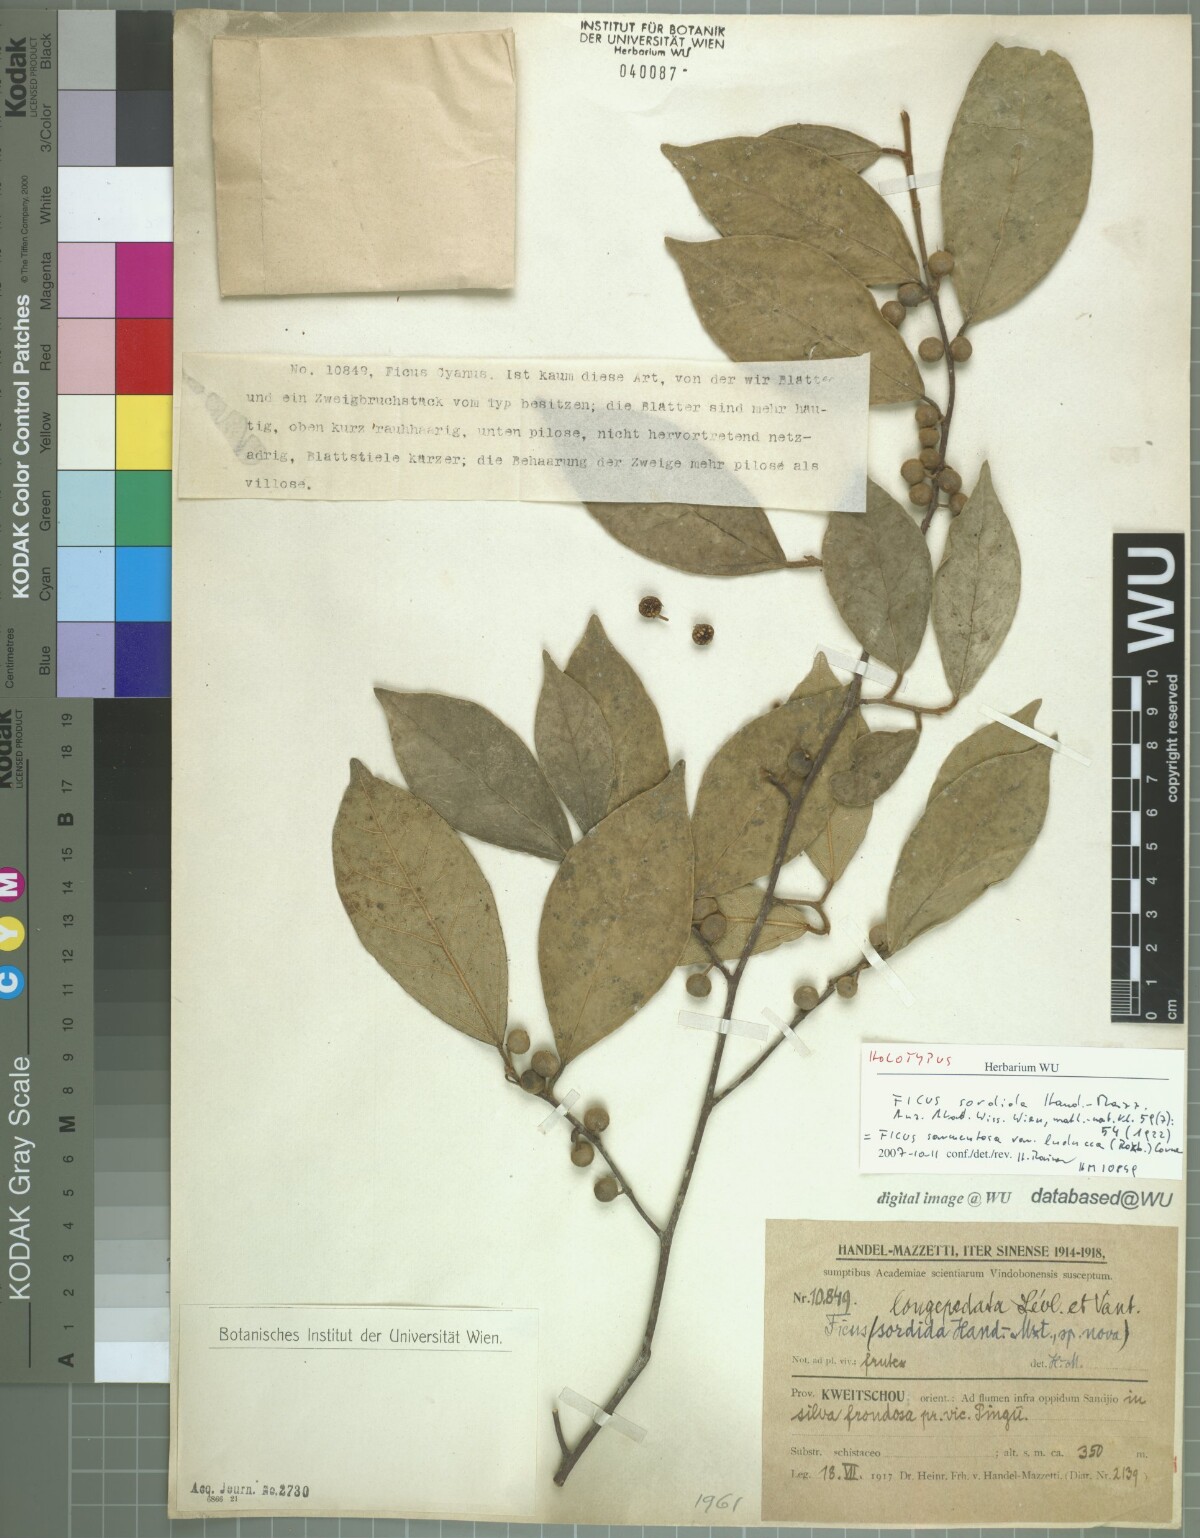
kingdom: Plantae
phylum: Tracheophyta
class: Magnoliopsida
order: Rosales
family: Moraceae
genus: Ficus
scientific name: Ficus sarmentosa
